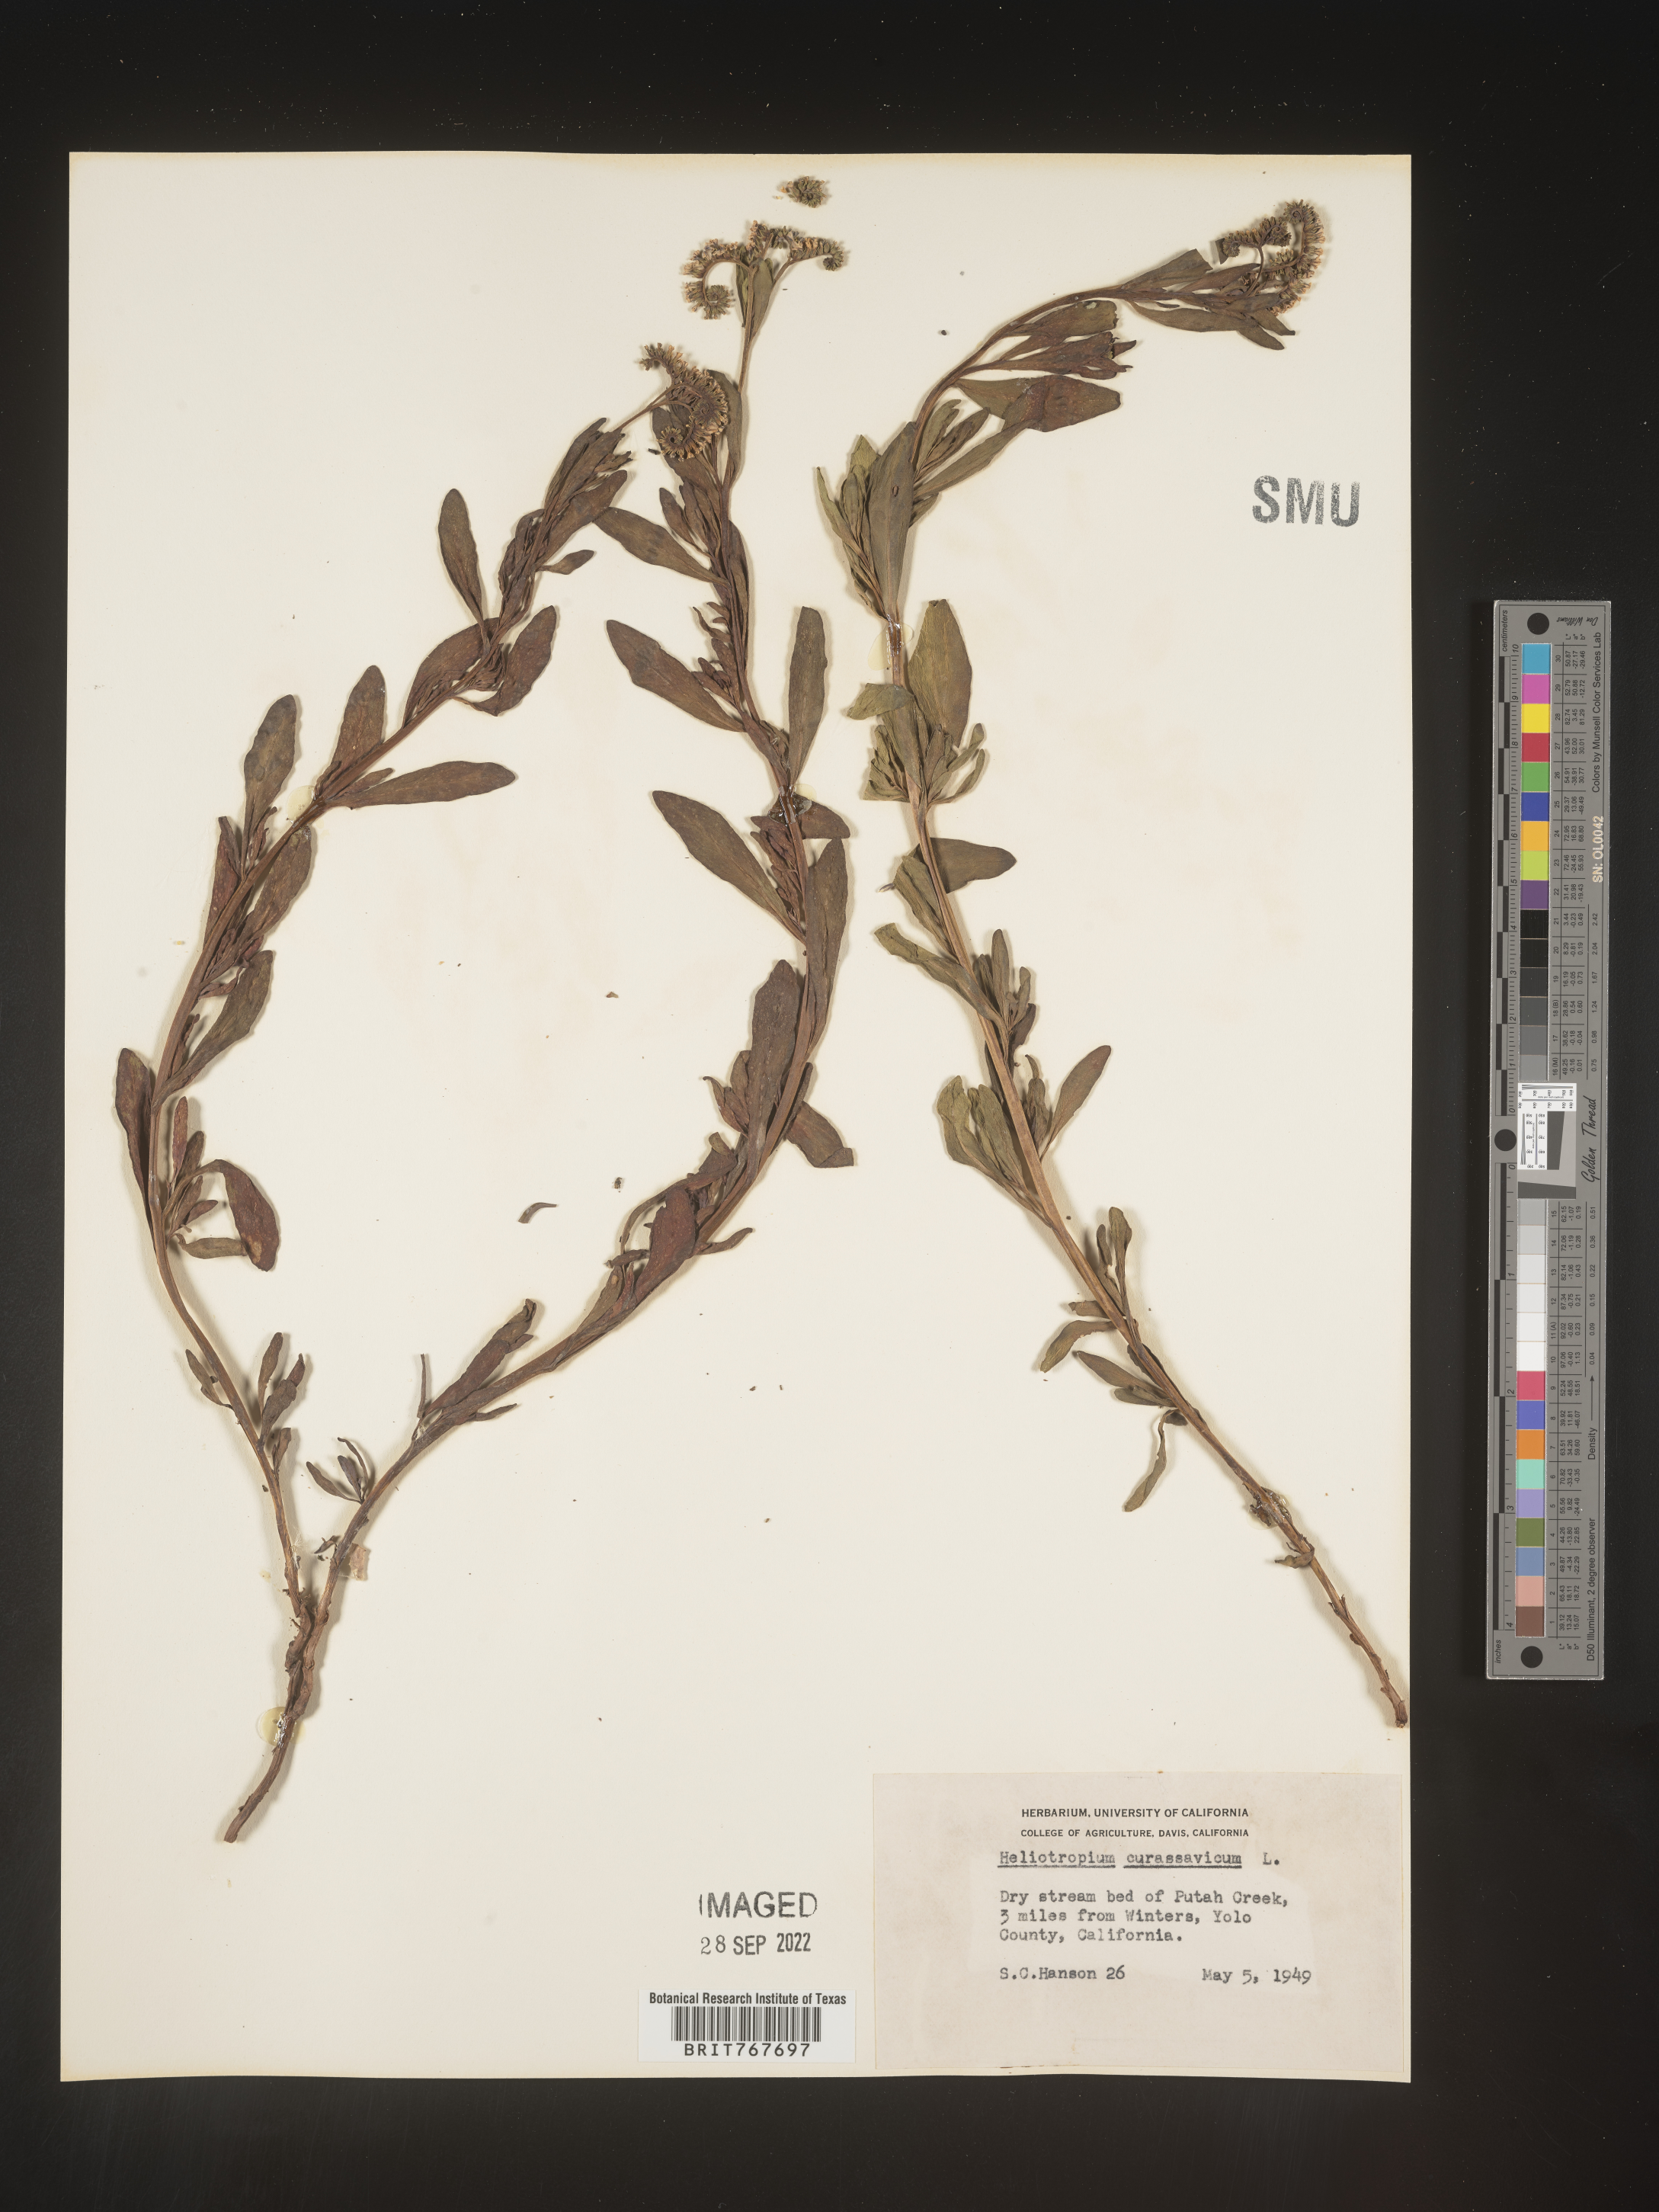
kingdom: Plantae
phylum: Tracheophyta
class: Magnoliopsida
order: Boraginales
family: Heliotropiaceae
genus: Heliotropium
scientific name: Heliotropium curassavicum
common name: Seaside heliotrope
